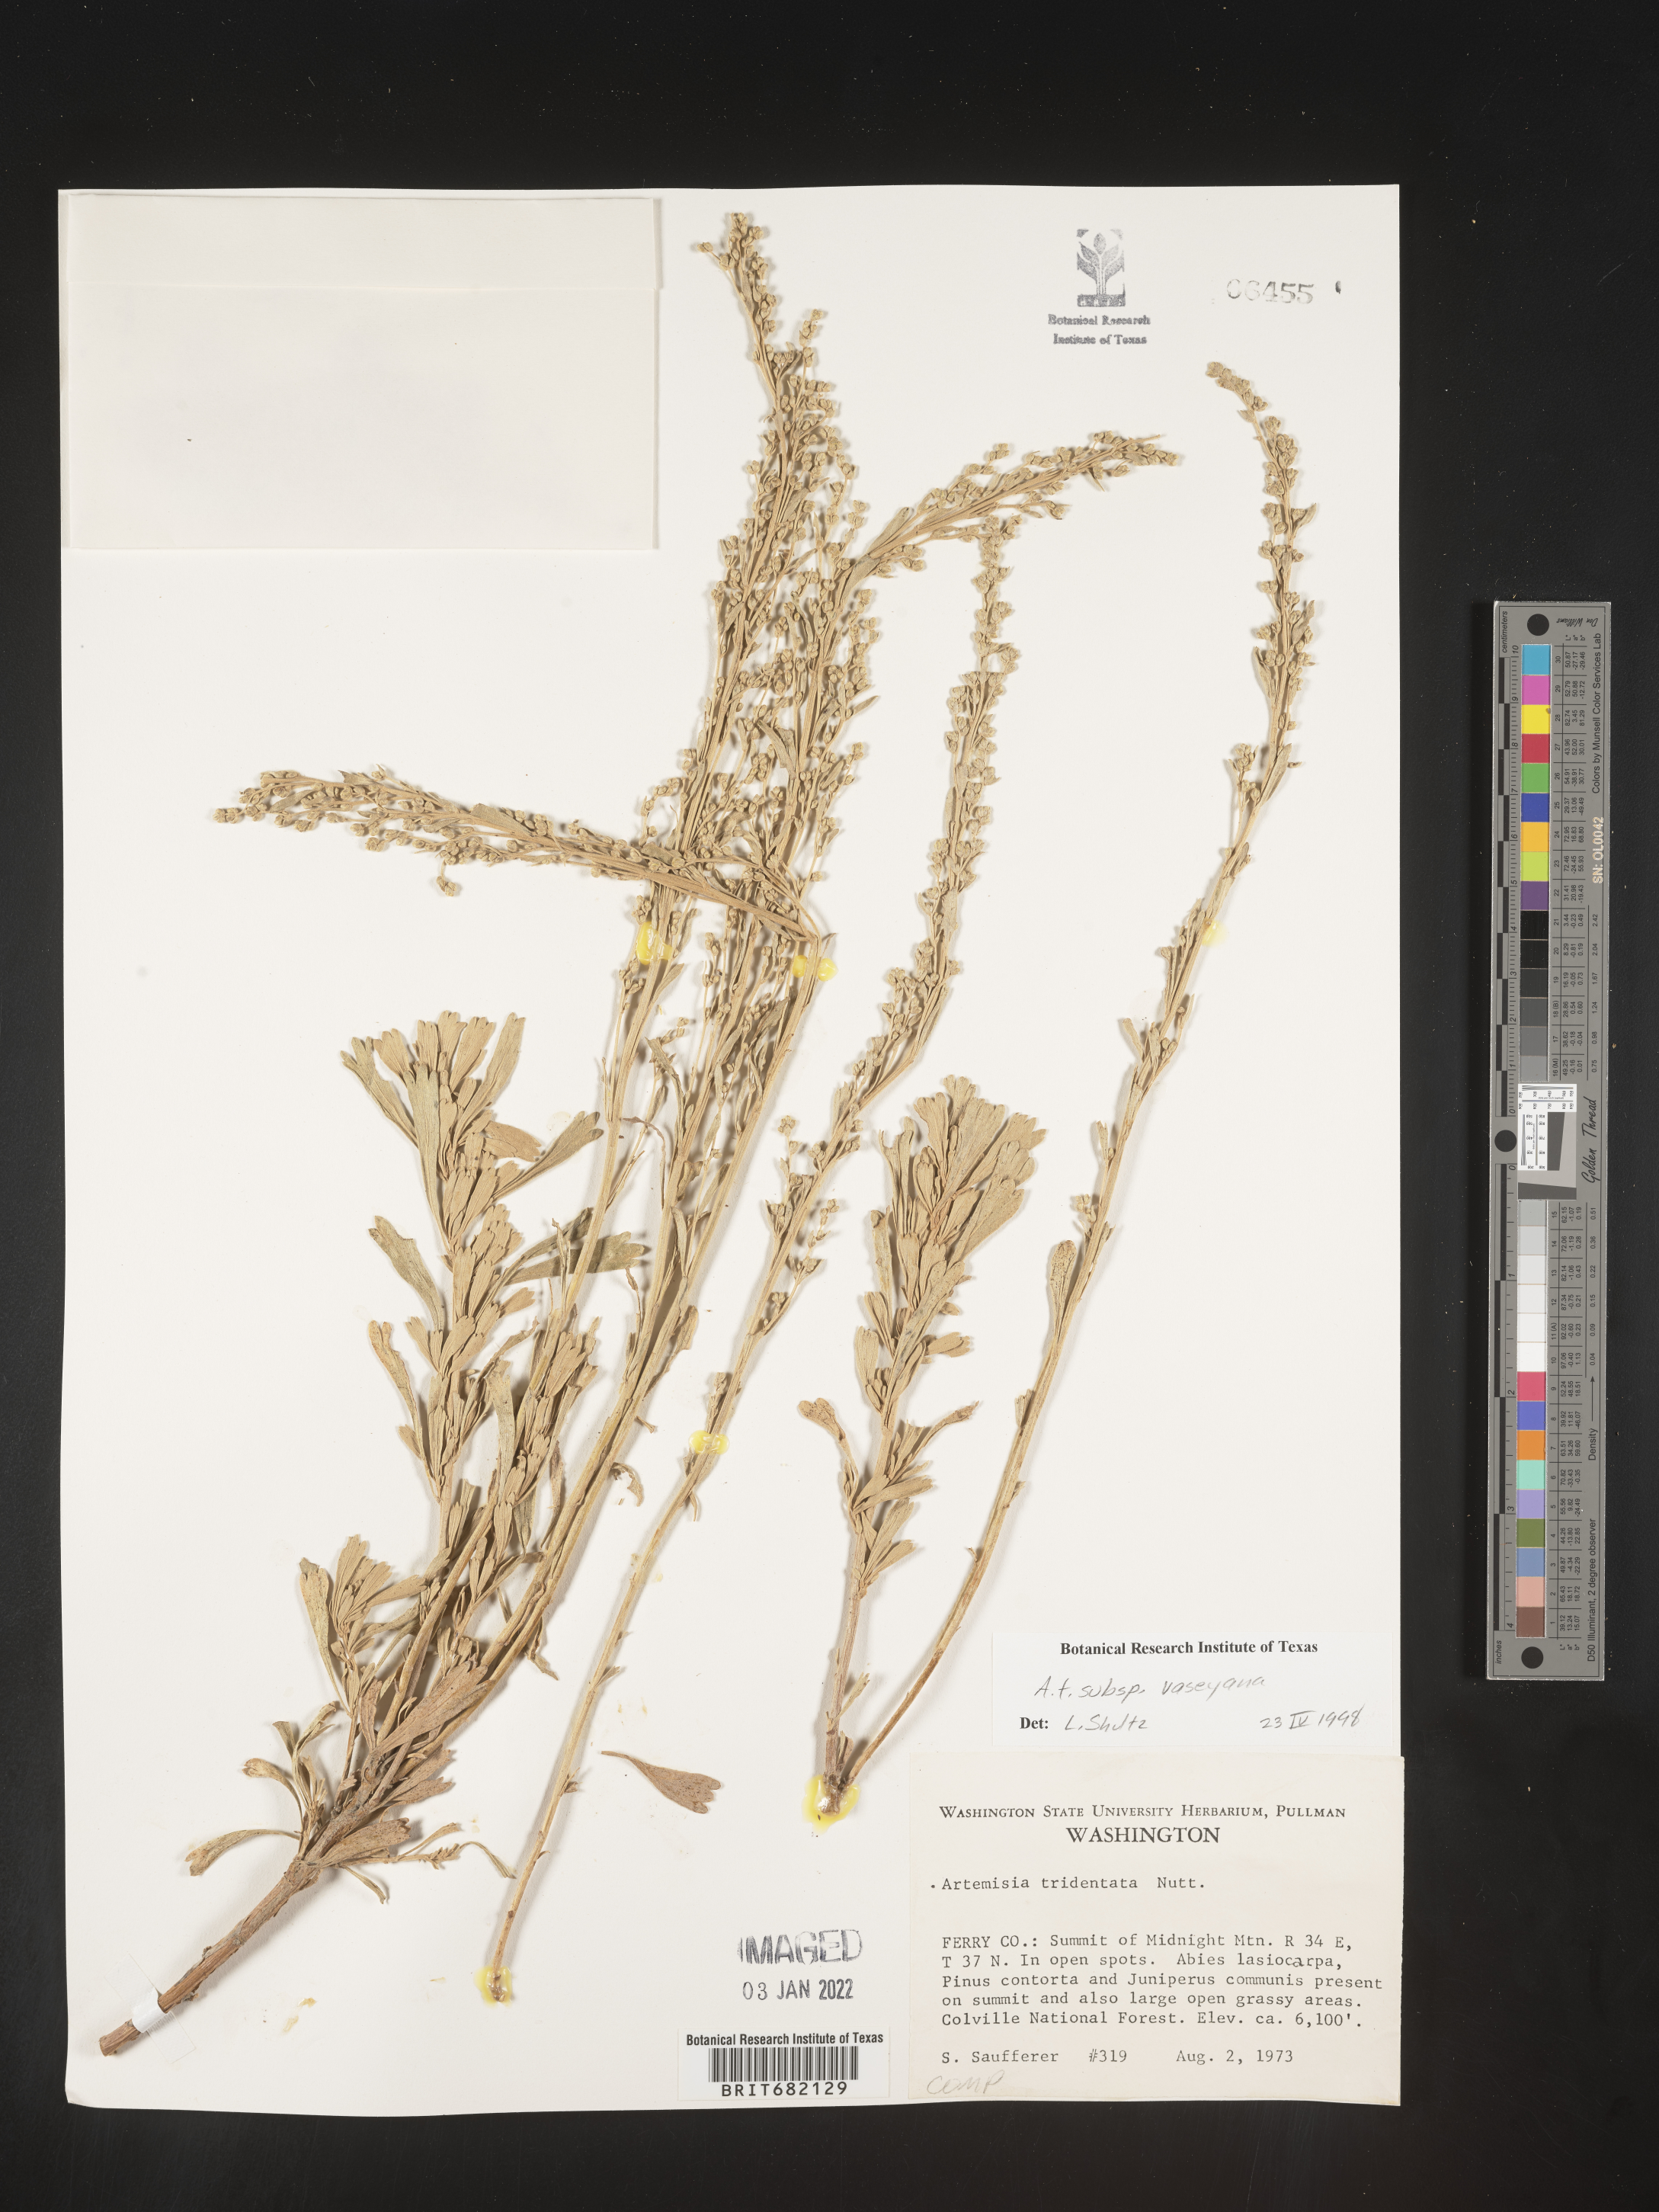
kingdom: Plantae
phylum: Tracheophyta
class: Magnoliopsida
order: Asterales
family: Asteraceae
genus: Artemisia
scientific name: Artemisia tridentata
